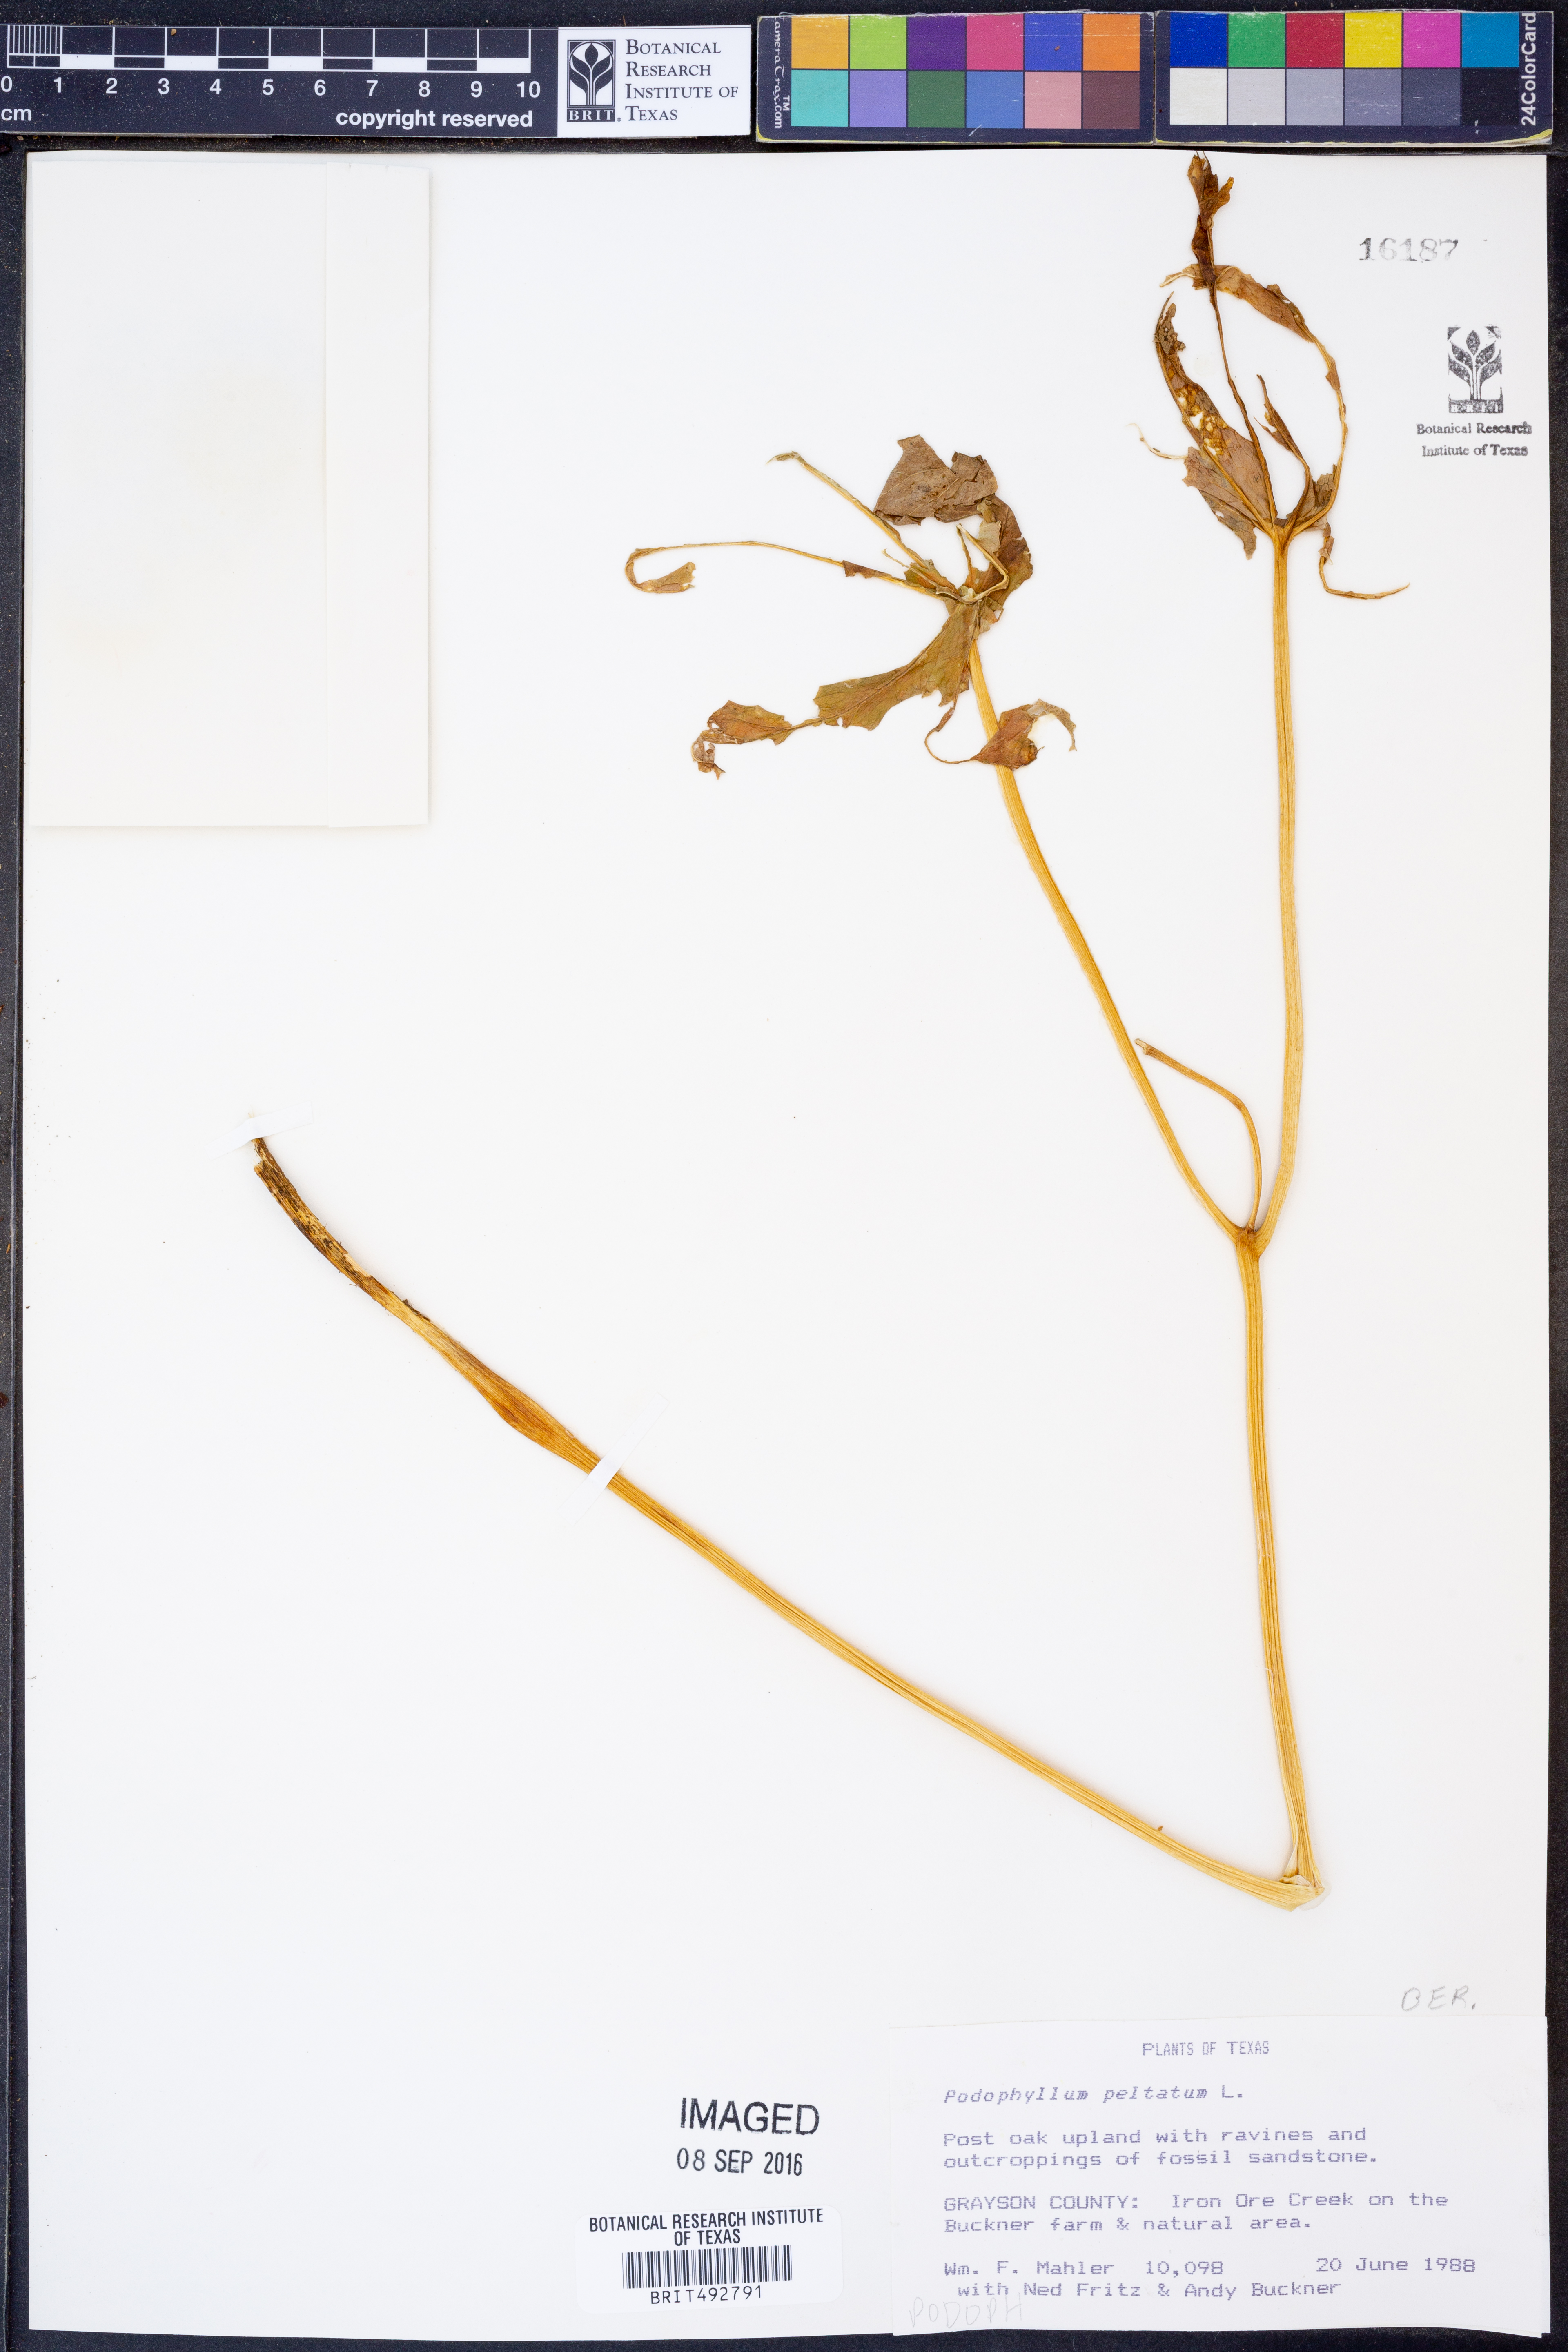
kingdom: Plantae
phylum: Tracheophyta
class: Magnoliopsida
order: Ranunculales
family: Berberidaceae
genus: Podophyllum
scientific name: Podophyllum peltatum
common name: Wild mandrake
